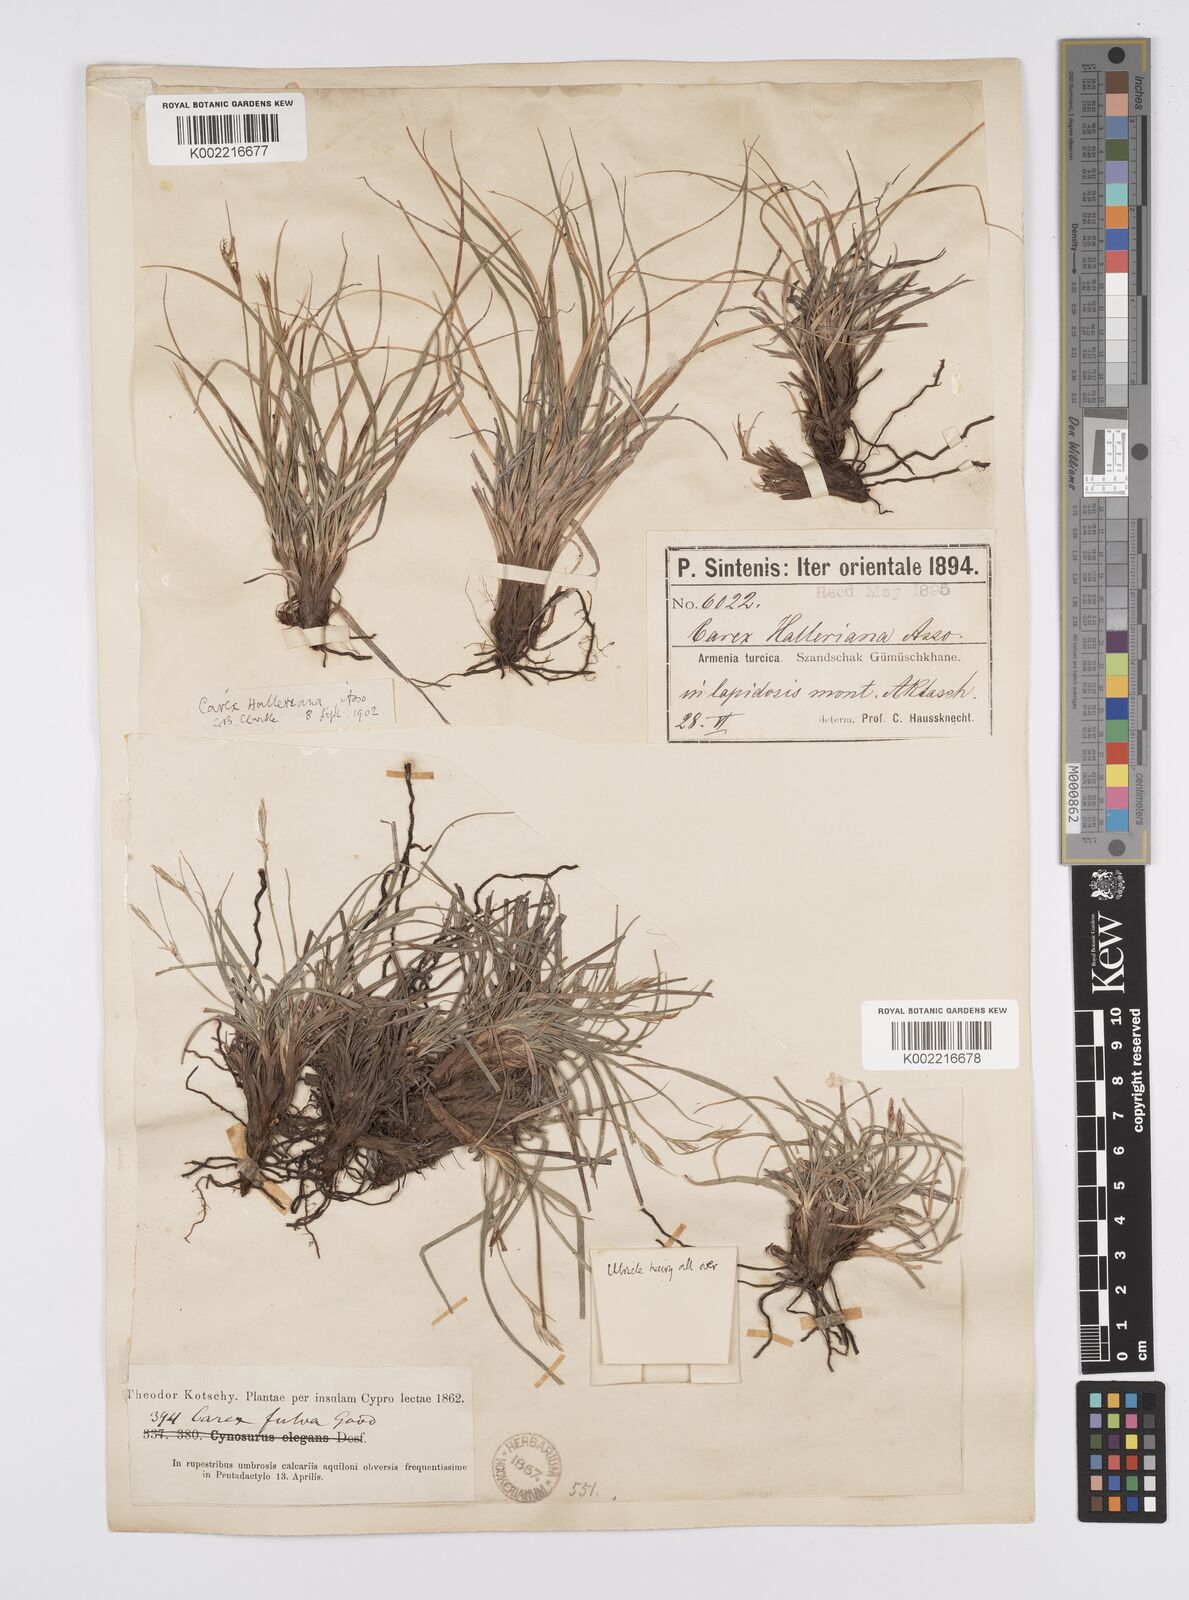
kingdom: Plantae
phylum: Tracheophyta
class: Liliopsida
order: Poales
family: Cyperaceae
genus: Carex
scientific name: Carex halleriana
